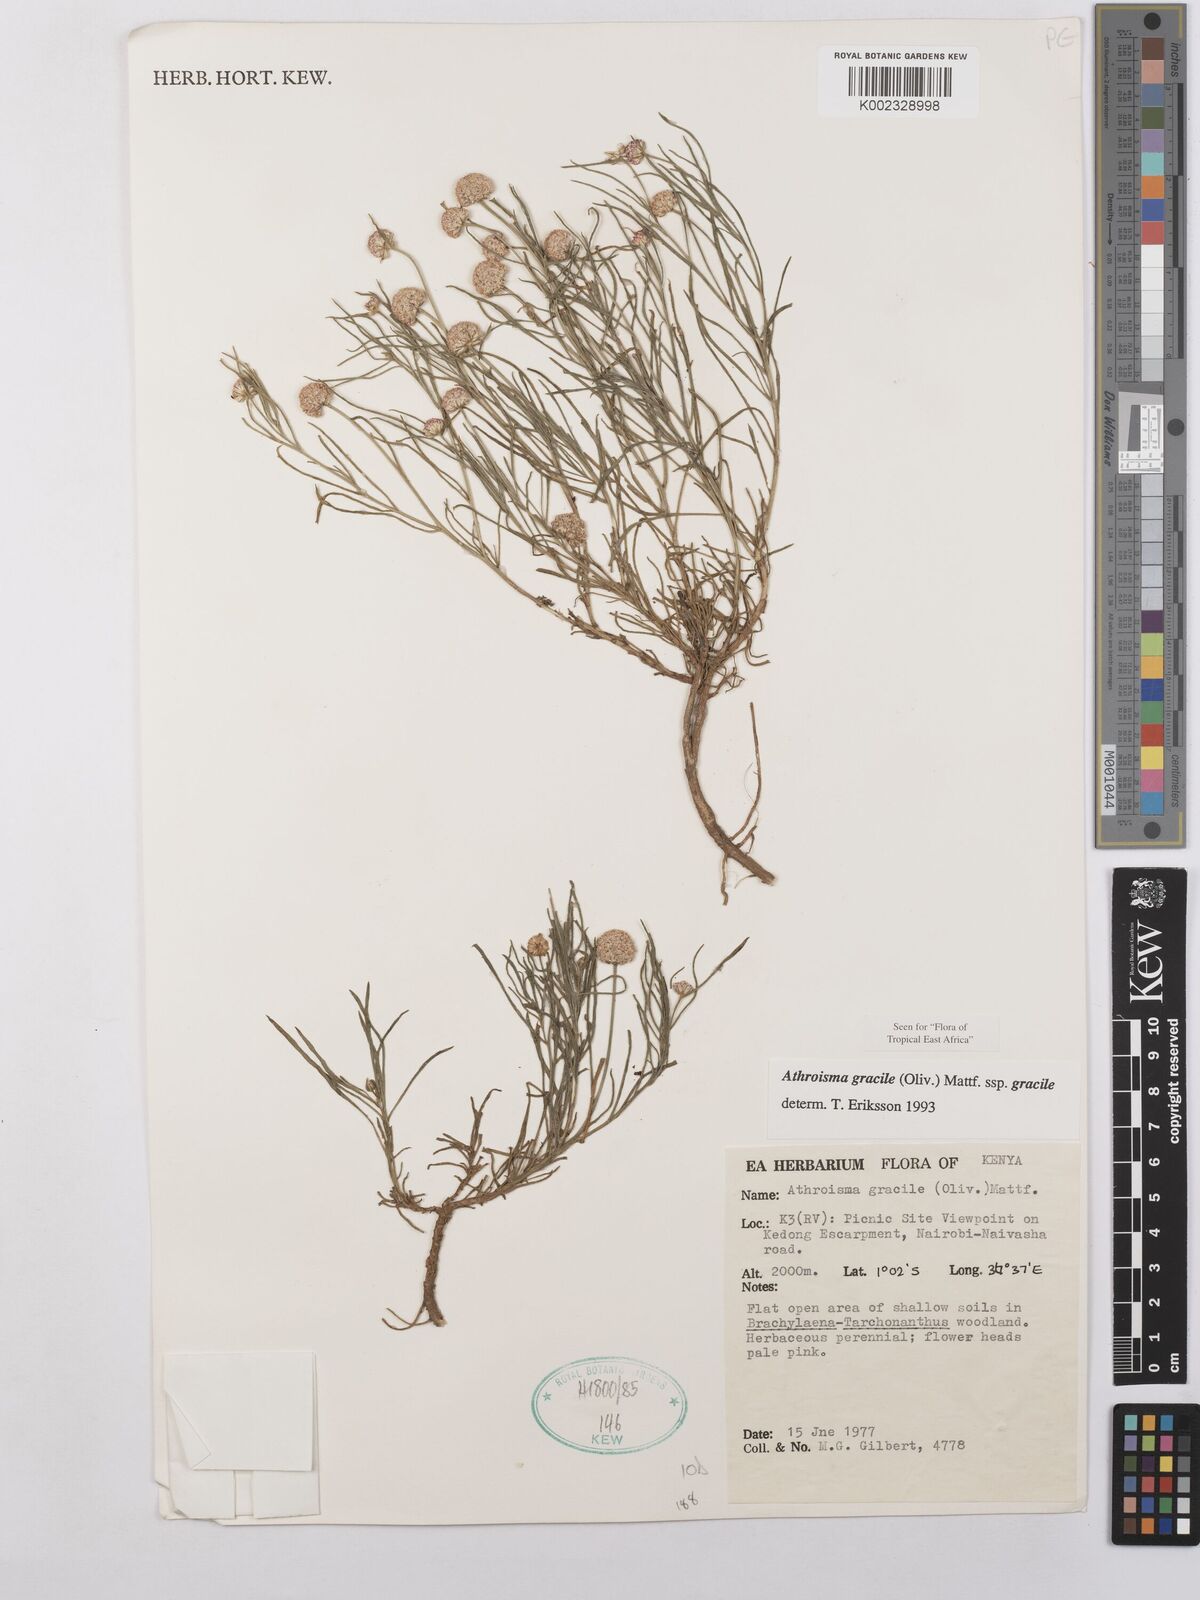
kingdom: Plantae
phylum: Tracheophyta
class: Magnoliopsida
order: Asterales
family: Asteraceae
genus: Athroisma
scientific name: Athroisma gracile
